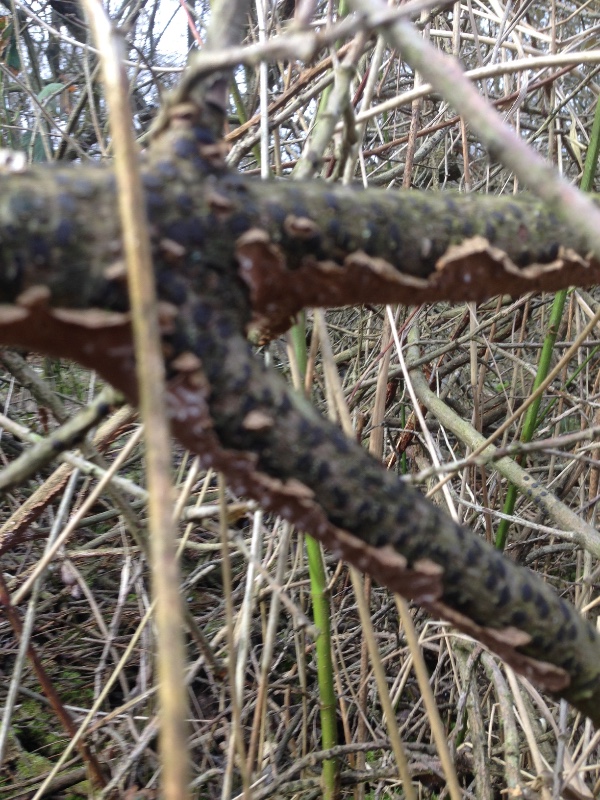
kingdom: Fungi
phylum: Basidiomycota
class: Agaricomycetes
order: Hymenochaetales
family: Hymenochaetaceae
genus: Hydnoporia
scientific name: Hydnoporia tabacina
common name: tobaksbrun ruslædersvamp
